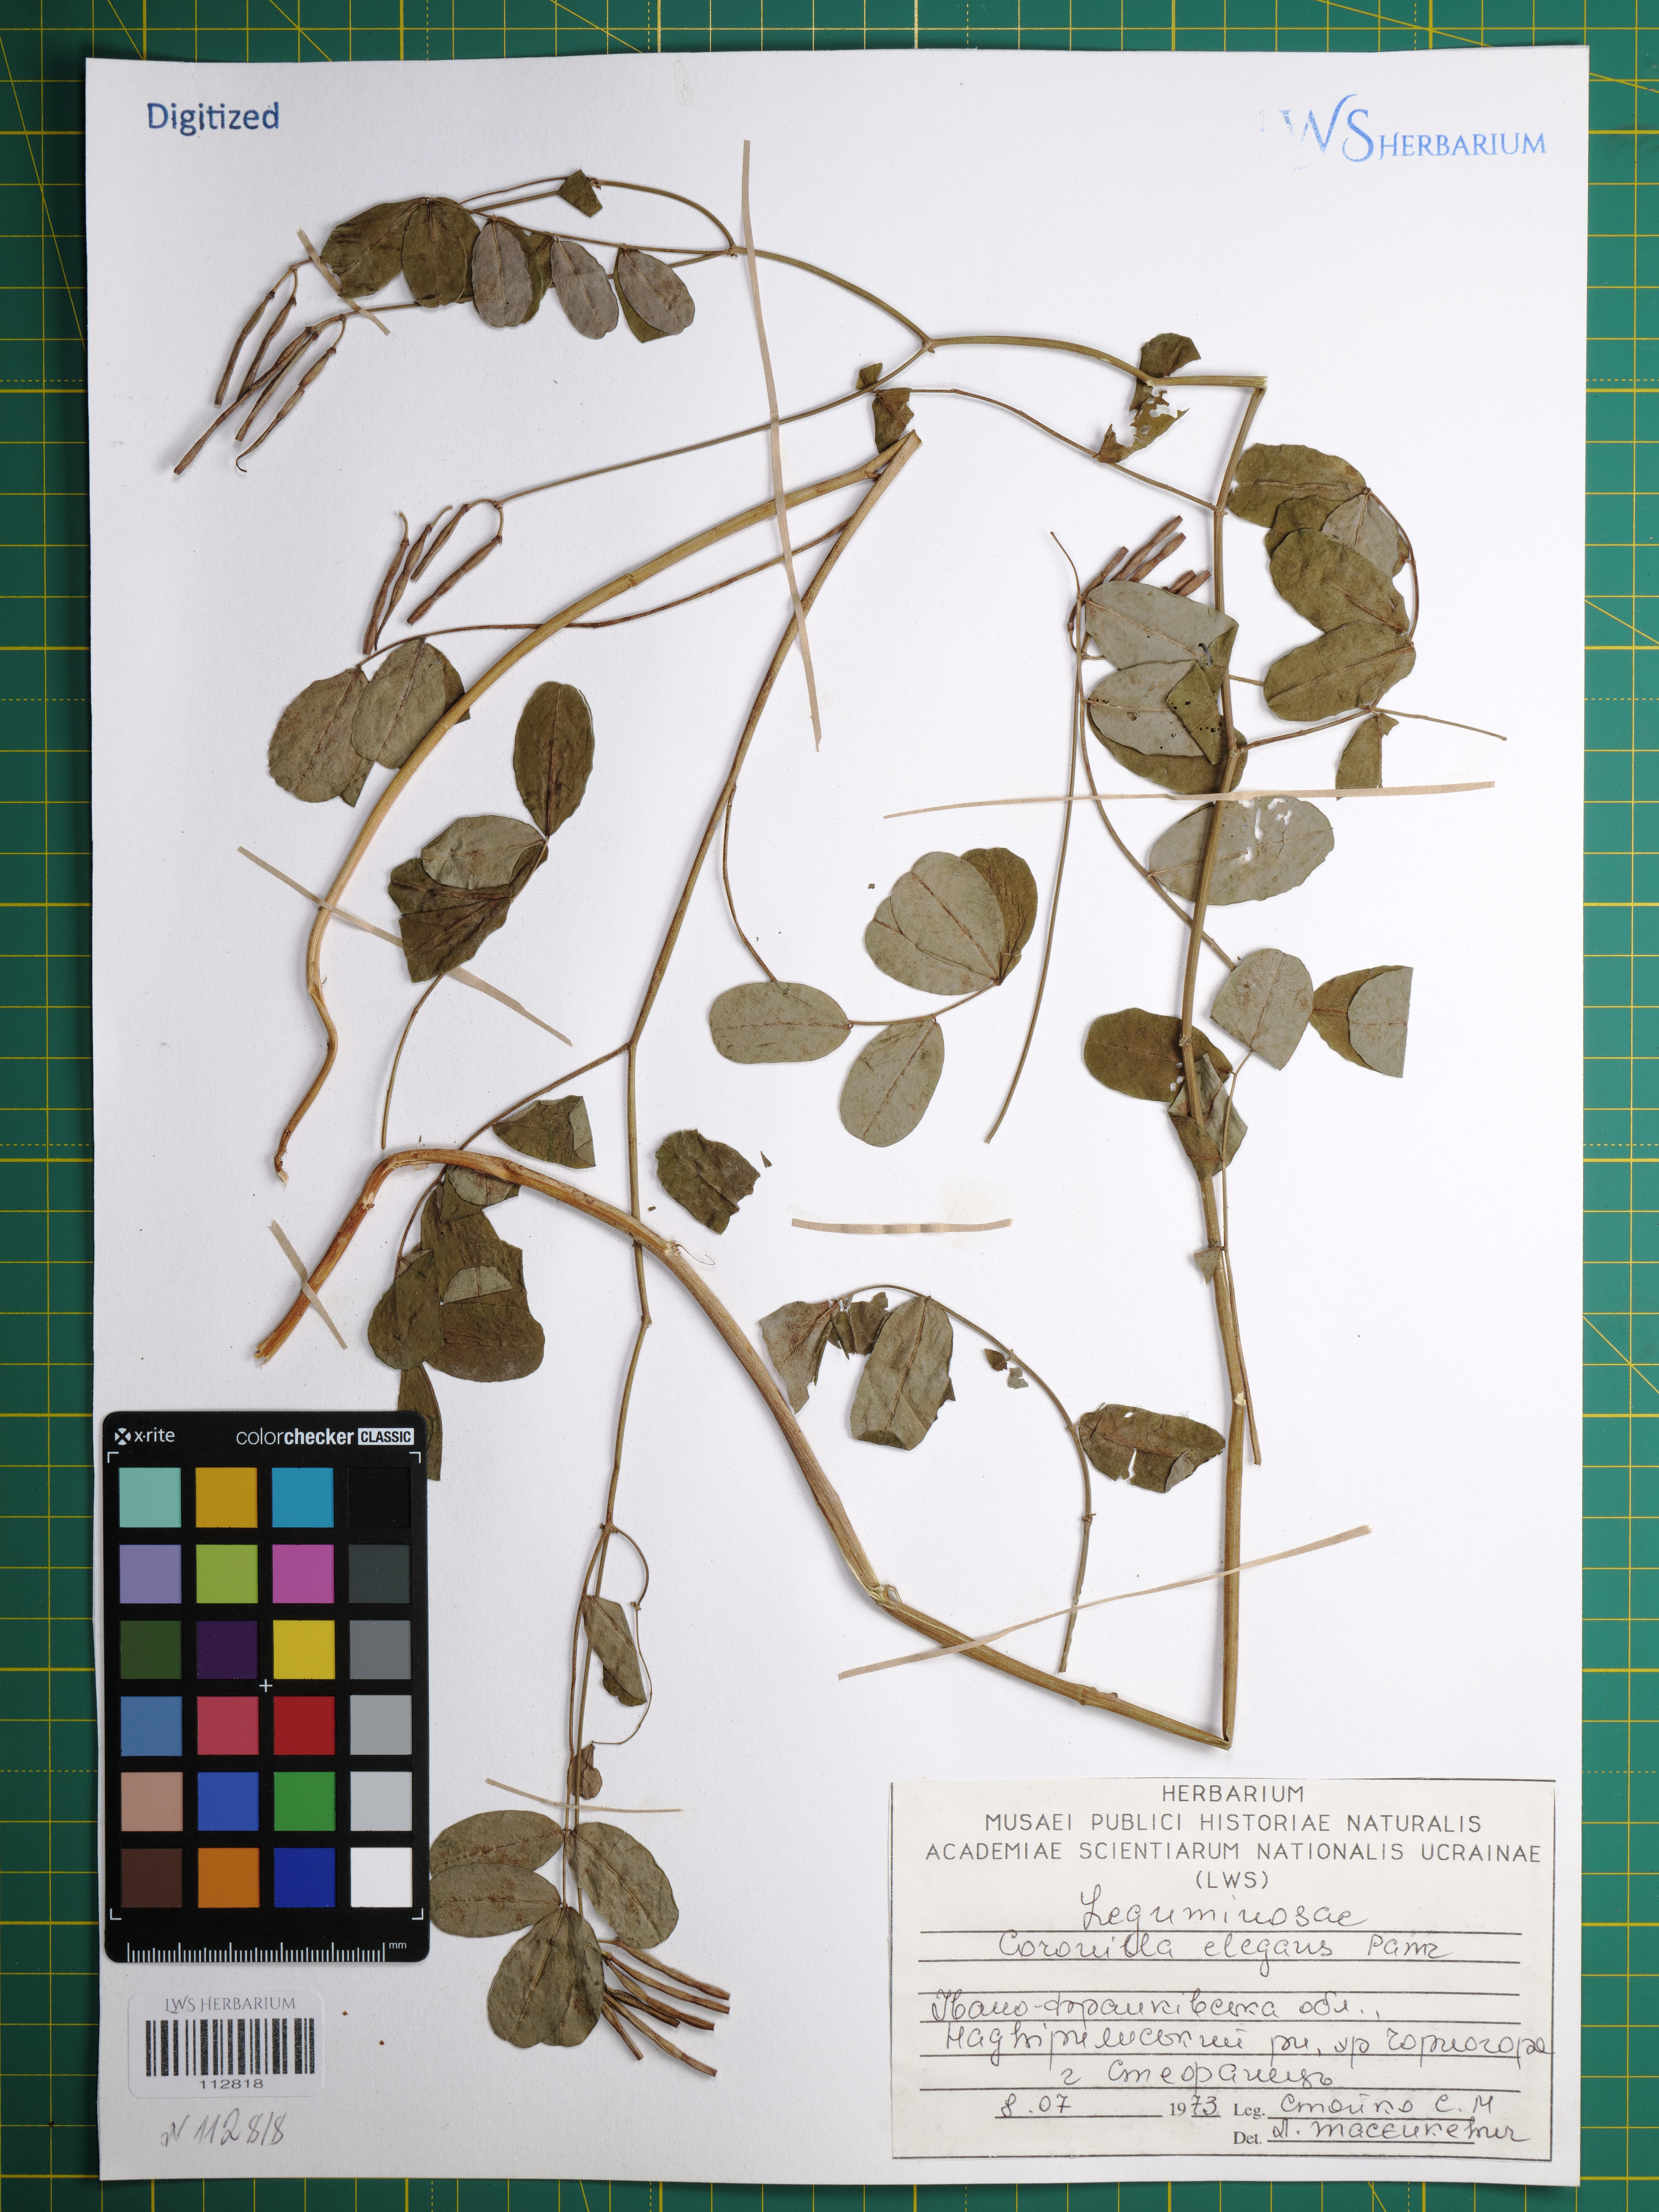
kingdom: Plantae
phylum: Tracheophyta
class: Magnoliopsida
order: Fabales
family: Fabaceae
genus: Coronilla
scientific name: Coronilla elegans
